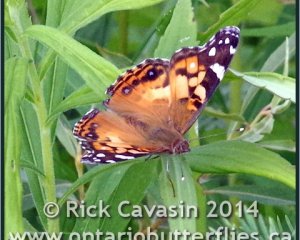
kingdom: Animalia
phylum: Arthropoda
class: Insecta
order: Lepidoptera
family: Nymphalidae
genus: Vanessa
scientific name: Vanessa virginiensis
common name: American Lady
